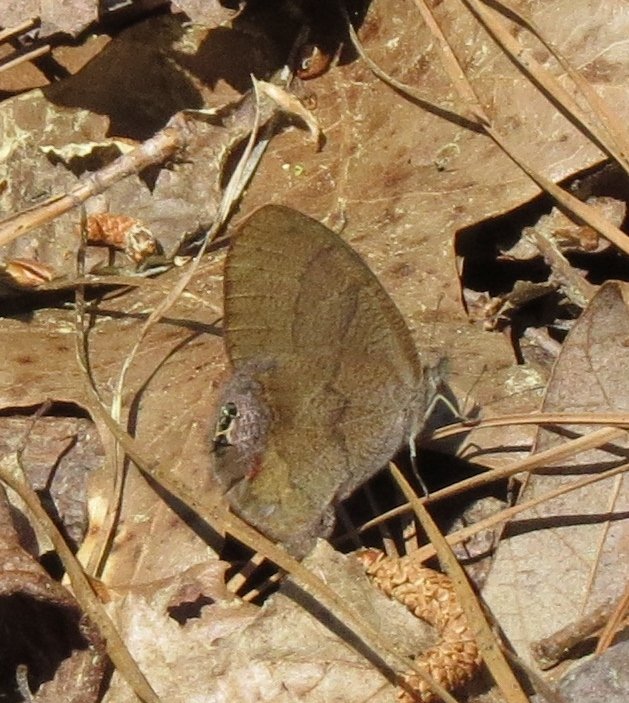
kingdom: Animalia
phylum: Arthropoda
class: Insecta
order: Lepidoptera
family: Nymphalidae
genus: Euptychia
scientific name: Euptychia cornelius
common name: Gemmed Satyr
